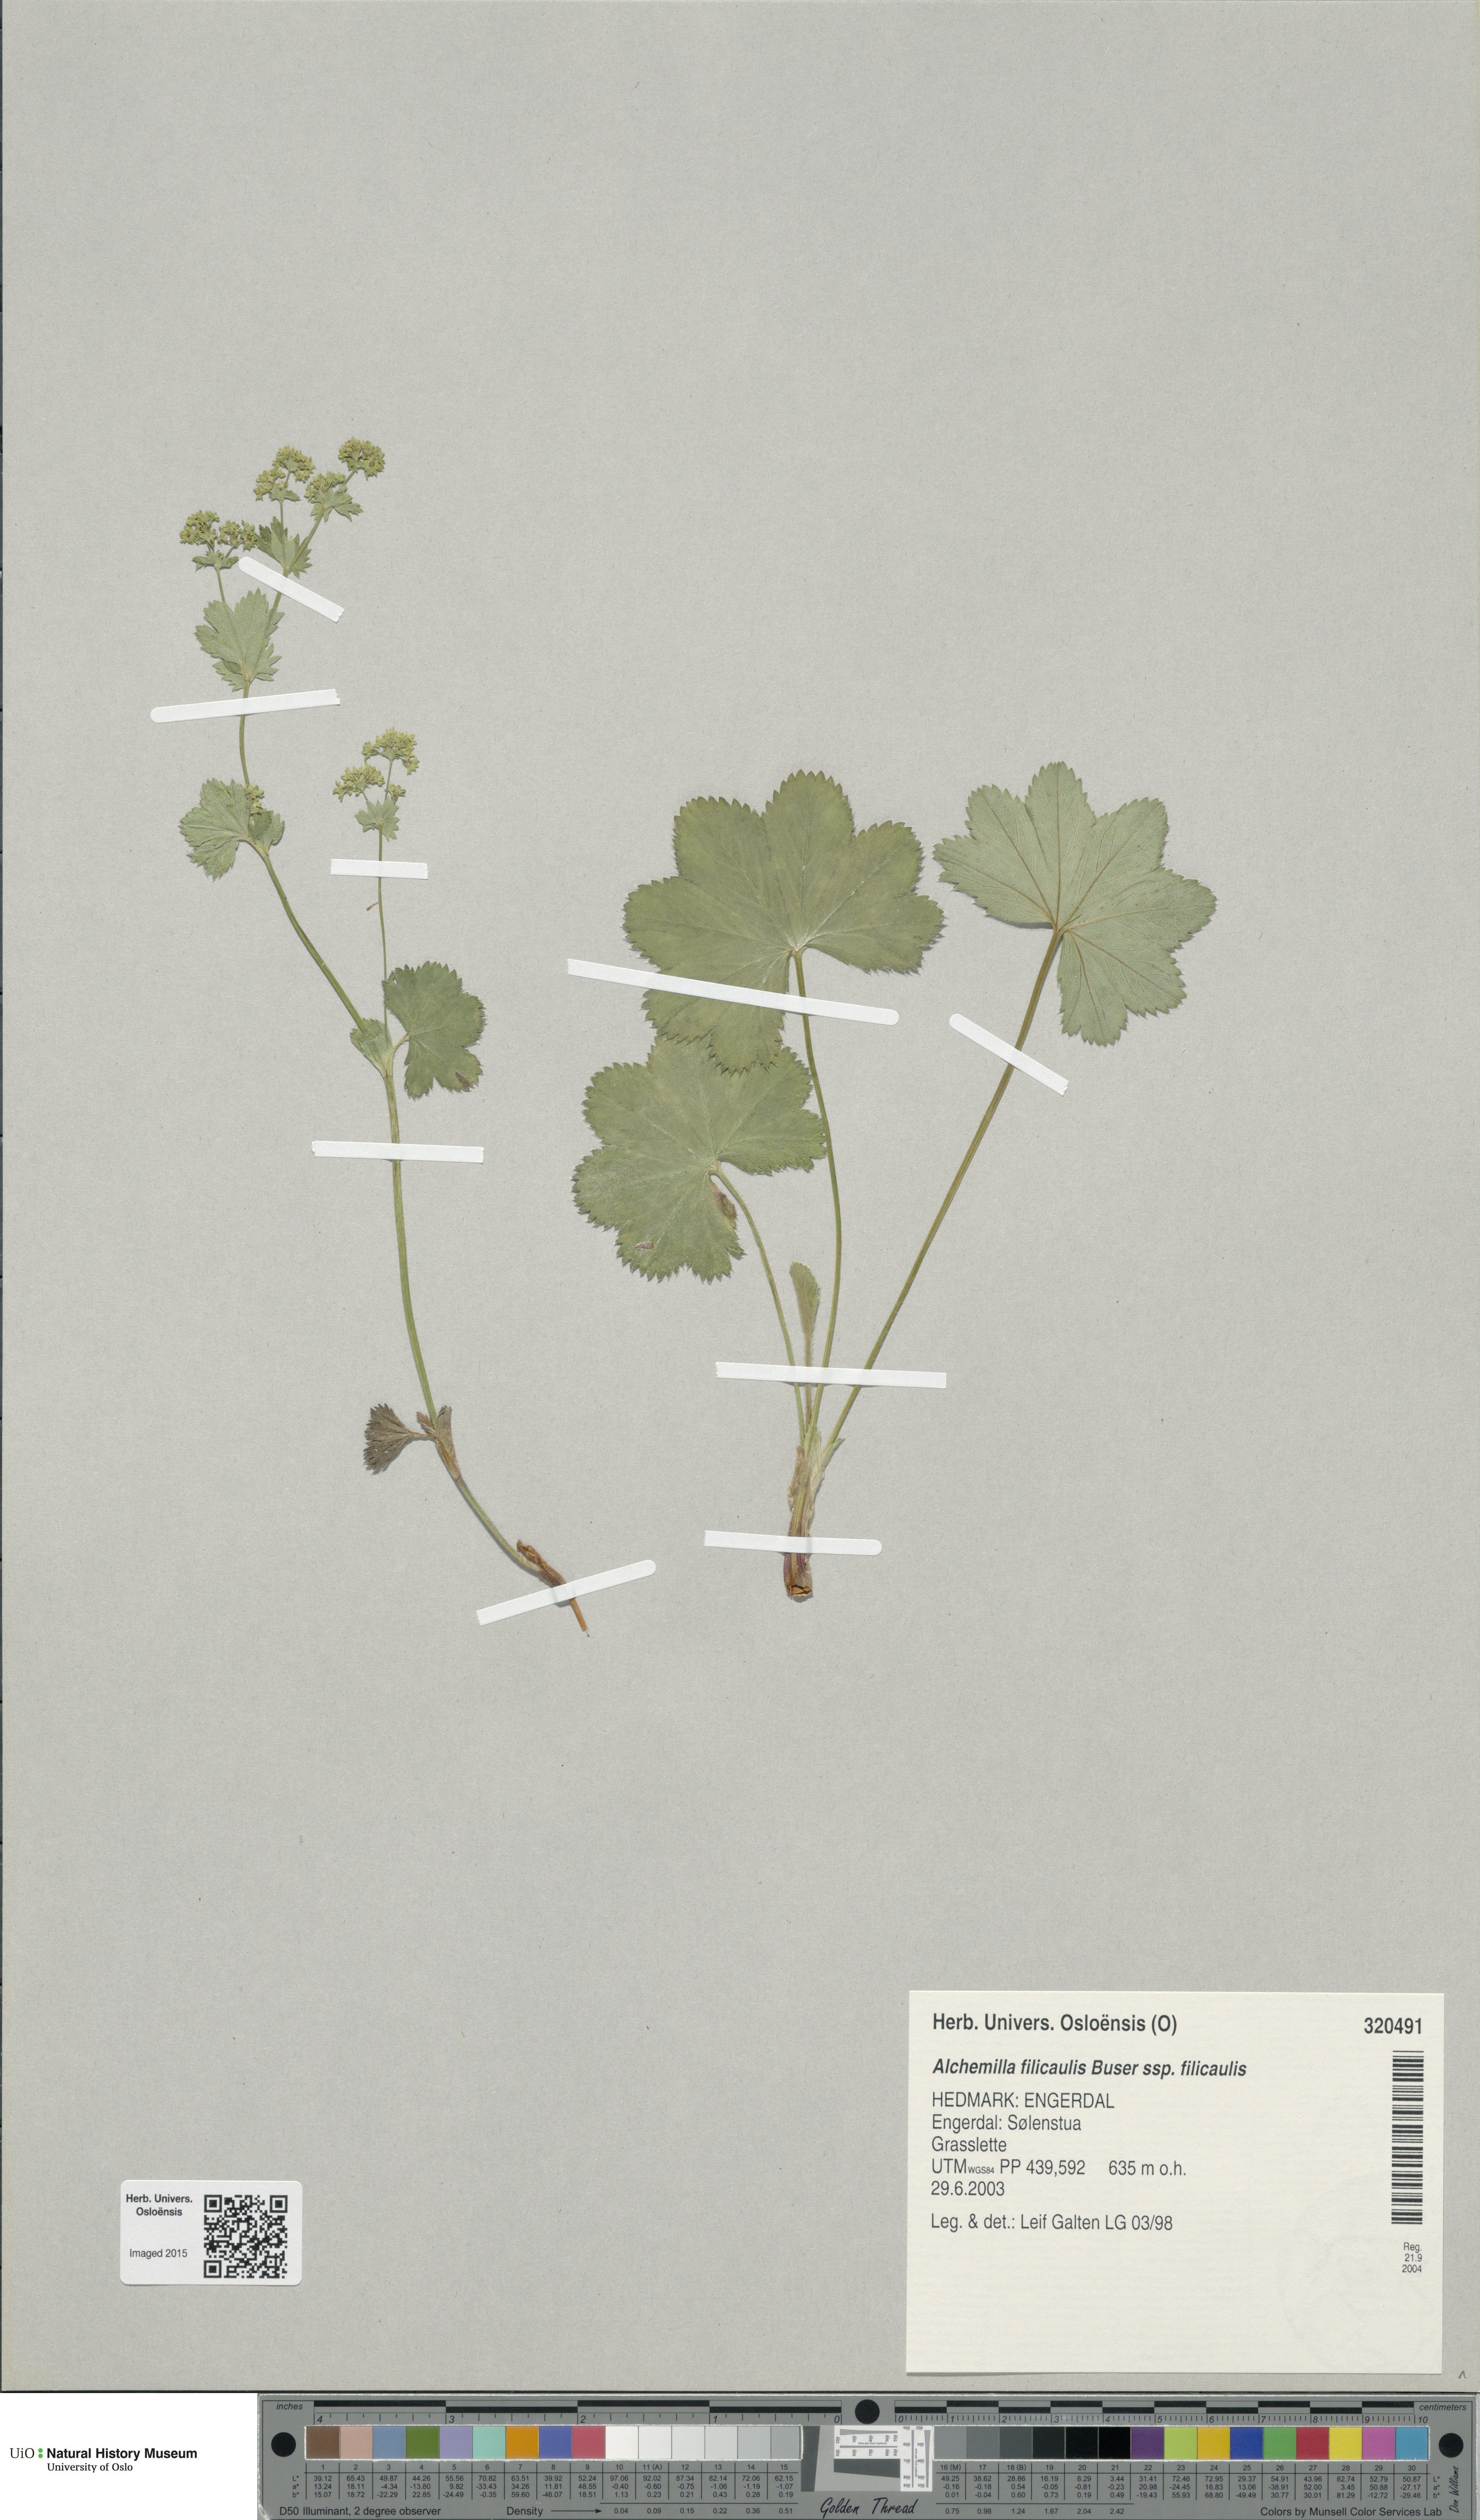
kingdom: Plantae
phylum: Tracheophyta
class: Magnoliopsida
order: Rosales
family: Rosaceae
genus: Alchemilla
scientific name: Alchemilla filicaulis
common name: Hairy lady's-mantle
